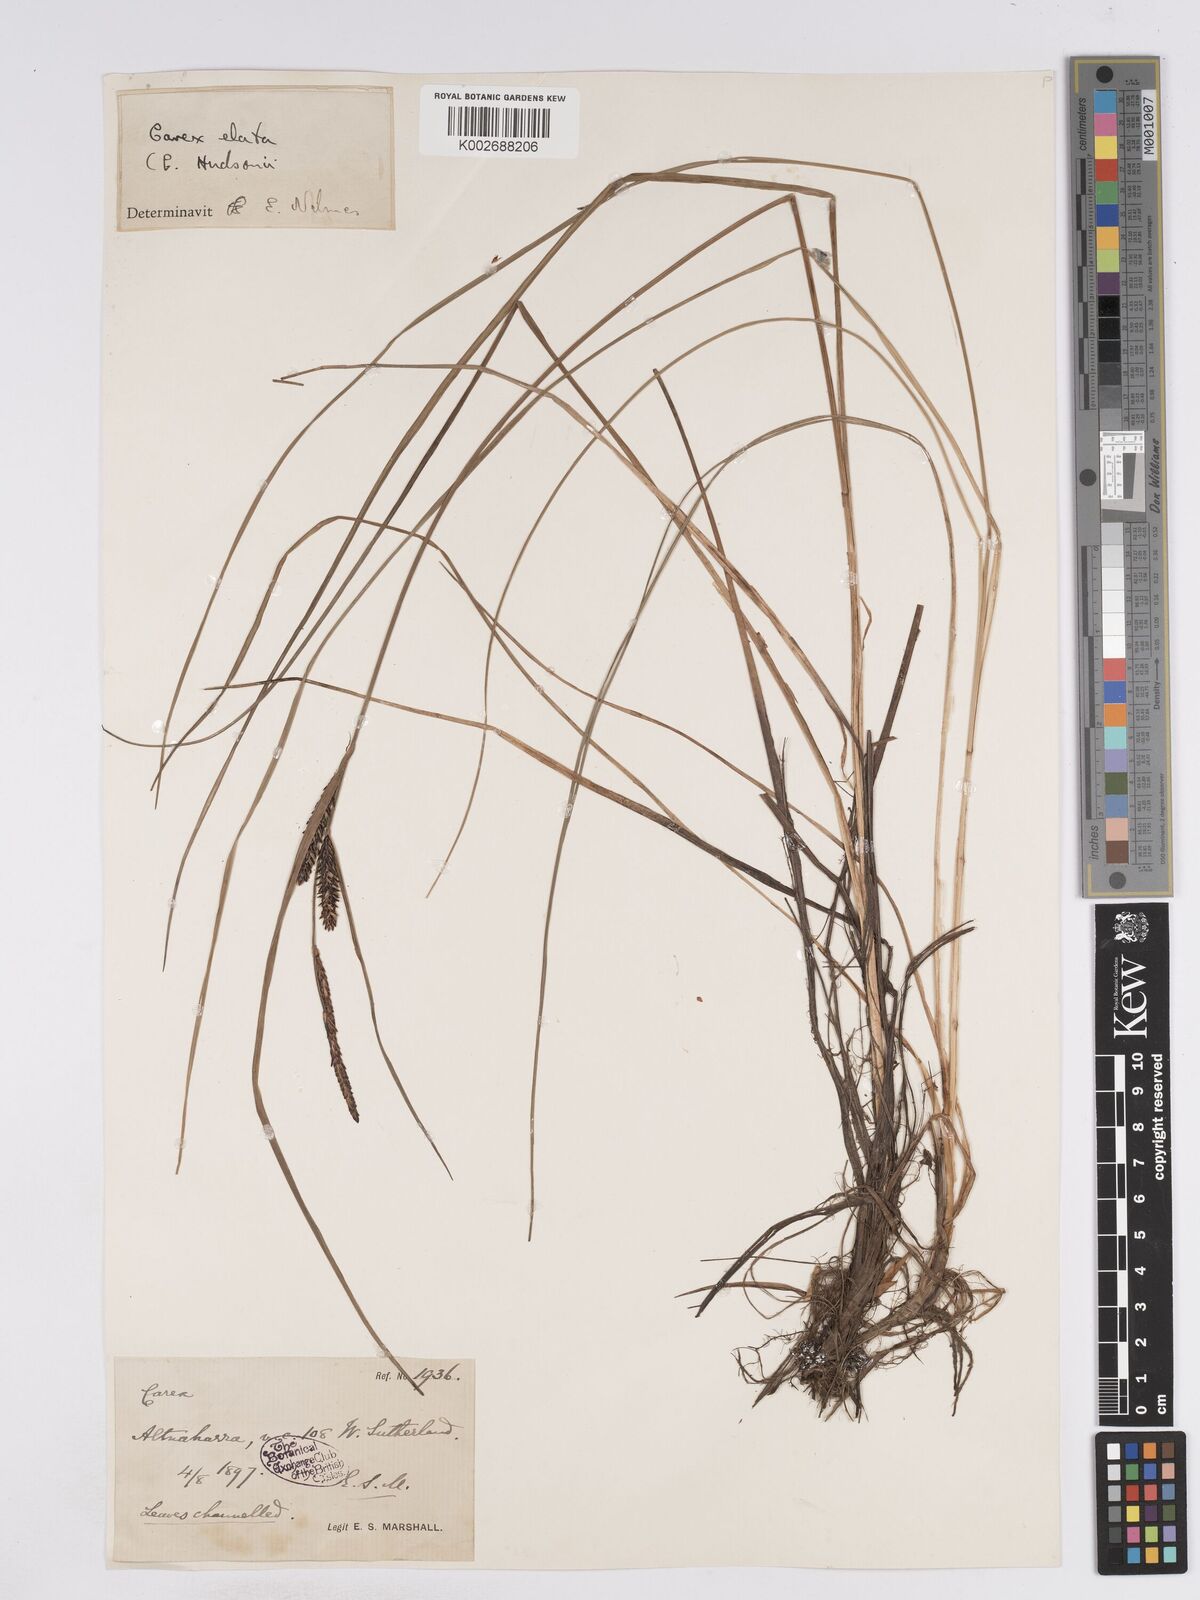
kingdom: Plantae
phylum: Tracheophyta
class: Liliopsida
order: Poales
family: Cyperaceae
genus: Carex
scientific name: Carex elata
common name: Tufted sedge
